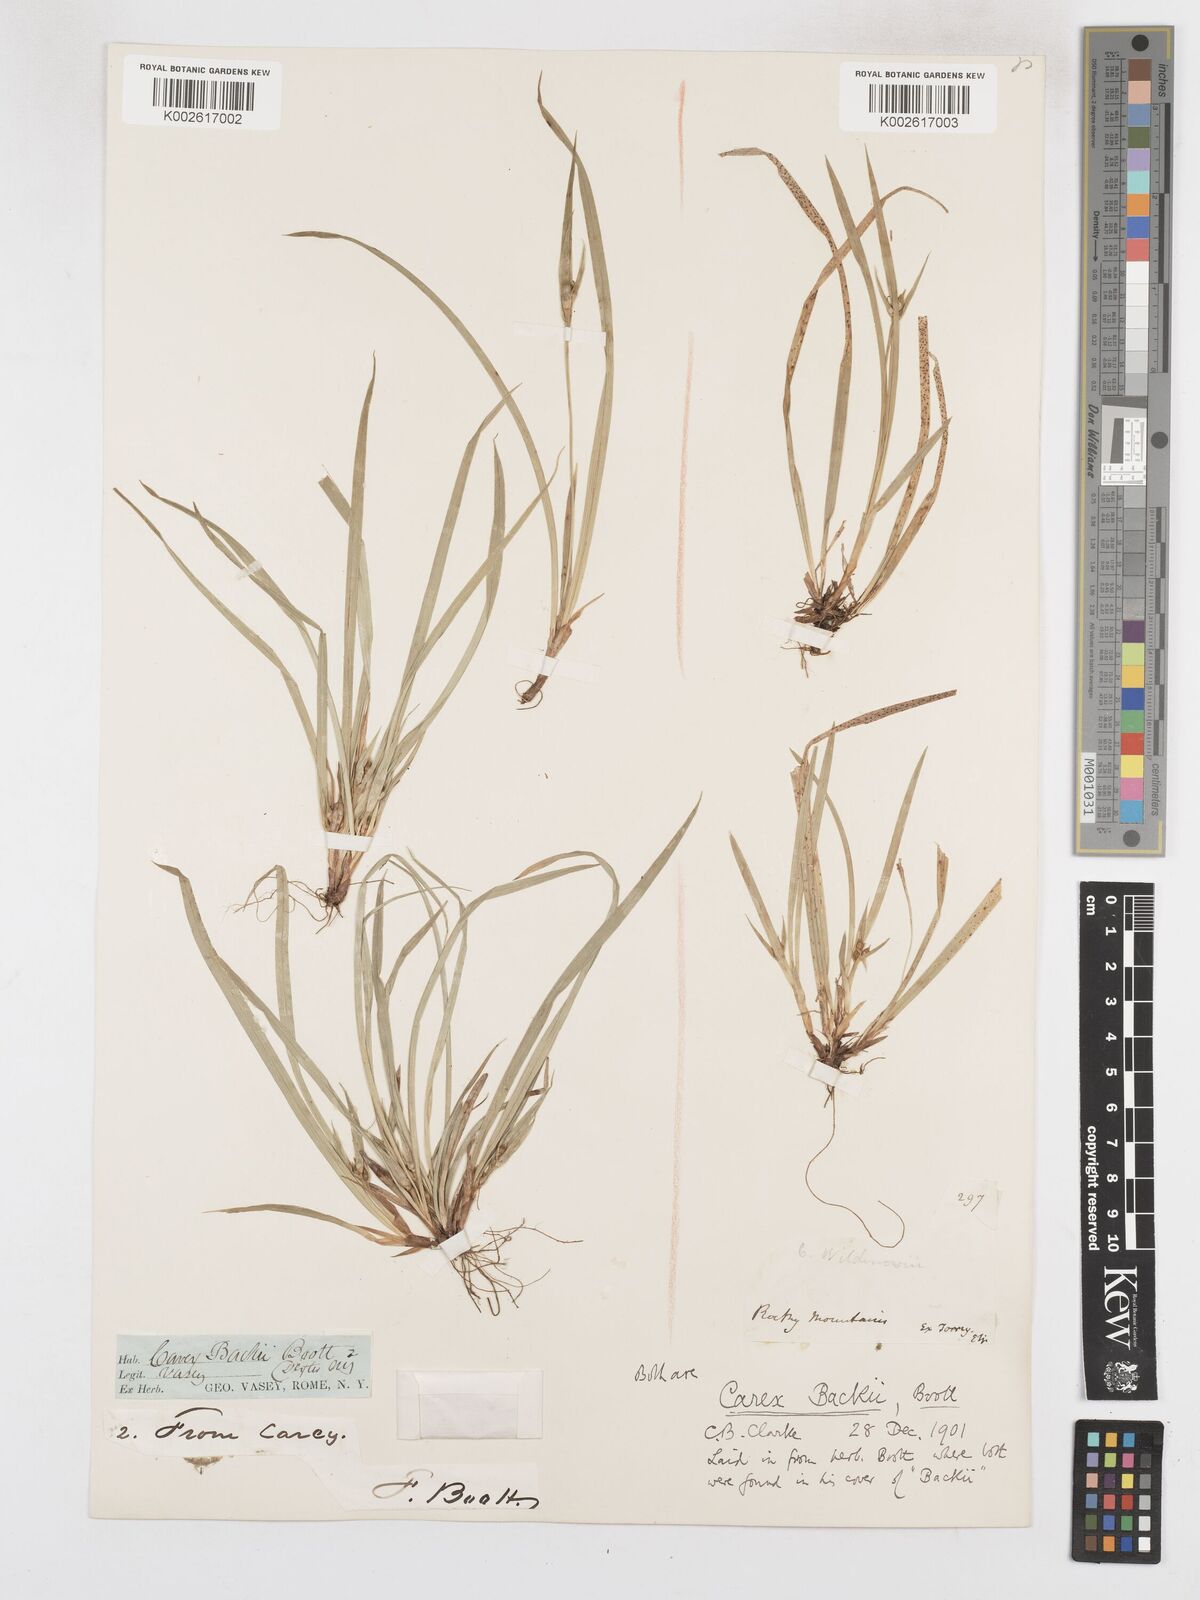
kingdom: Plantae
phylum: Tracheophyta
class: Liliopsida
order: Poales
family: Cyperaceae
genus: Carex
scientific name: Carex backii
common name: Back's sedge
